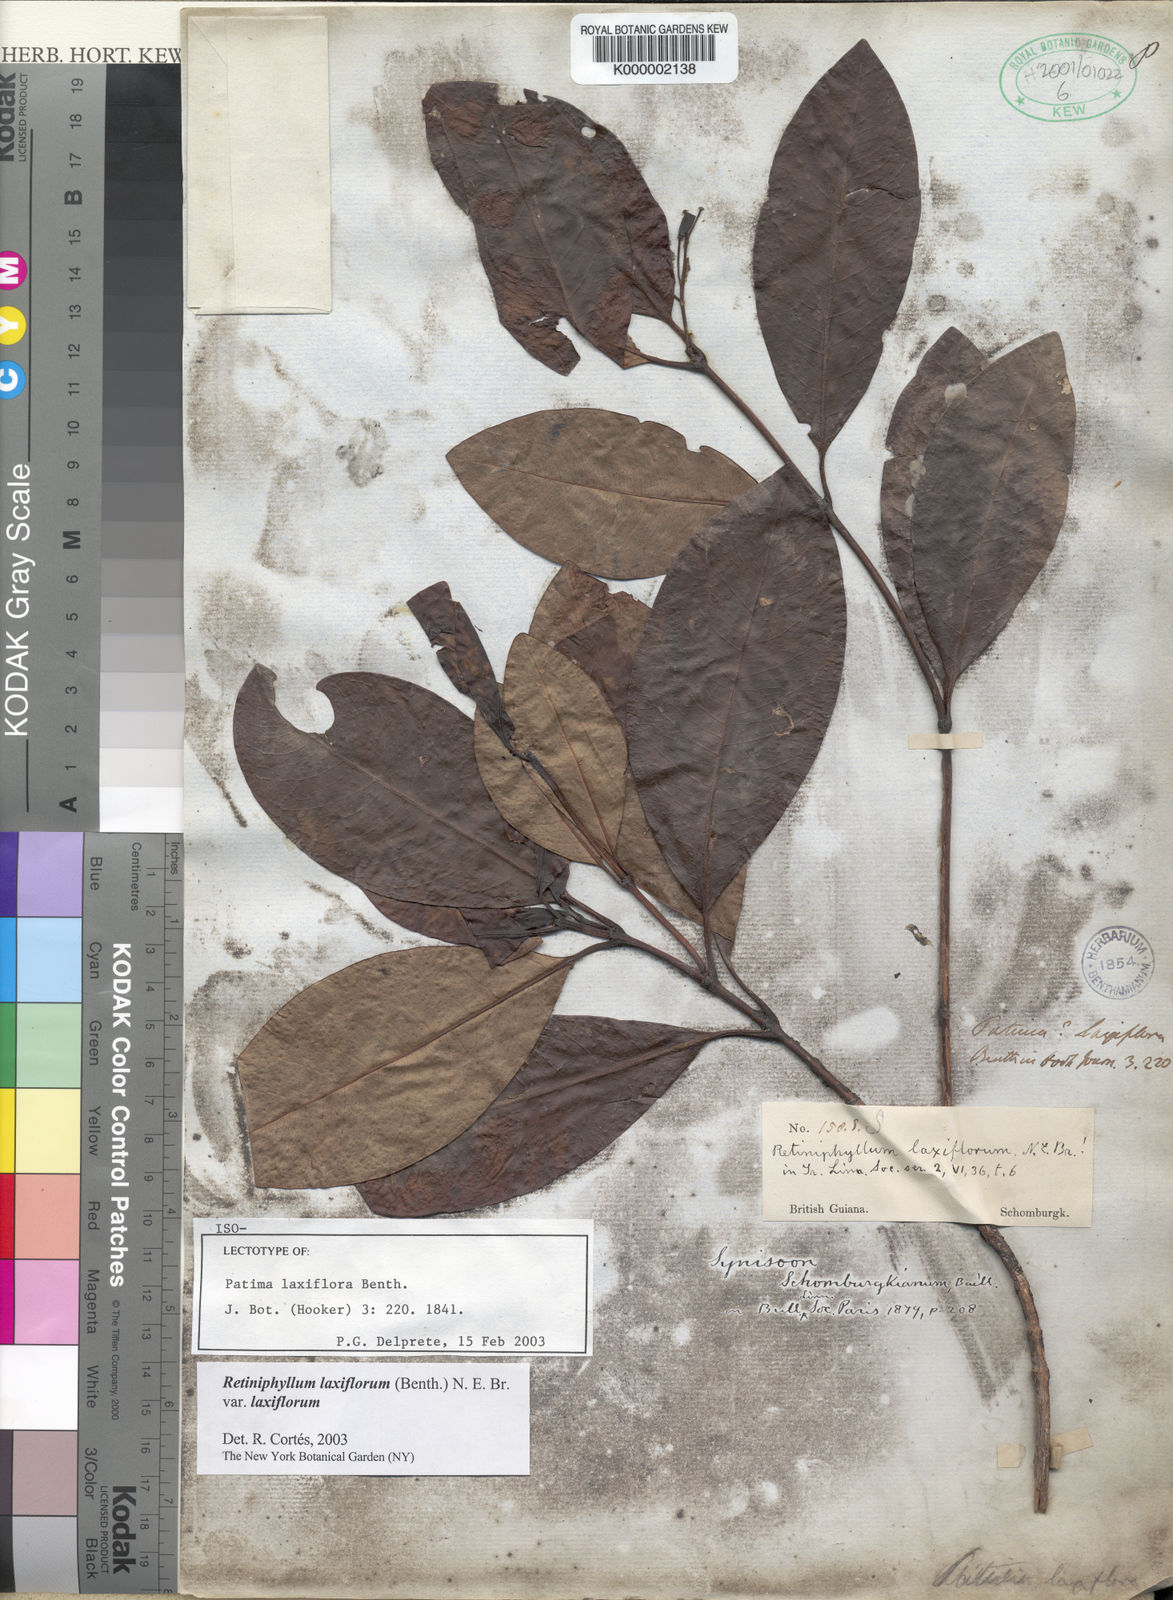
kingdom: Plantae
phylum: Tracheophyta
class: Magnoliopsida
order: Gentianales
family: Rubiaceae
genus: Retiniphyllum
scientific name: Retiniphyllum laxiflorum
